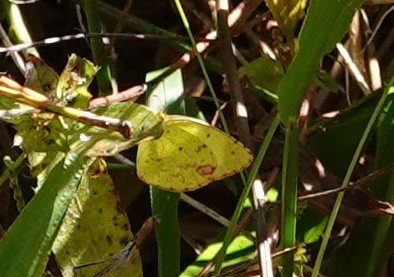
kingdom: Animalia
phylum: Arthropoda
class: Insecta
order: Lepidoptera
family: Pieridae
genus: Pyrisitia
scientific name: Pyrisitia lisa
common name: Little Yellow
